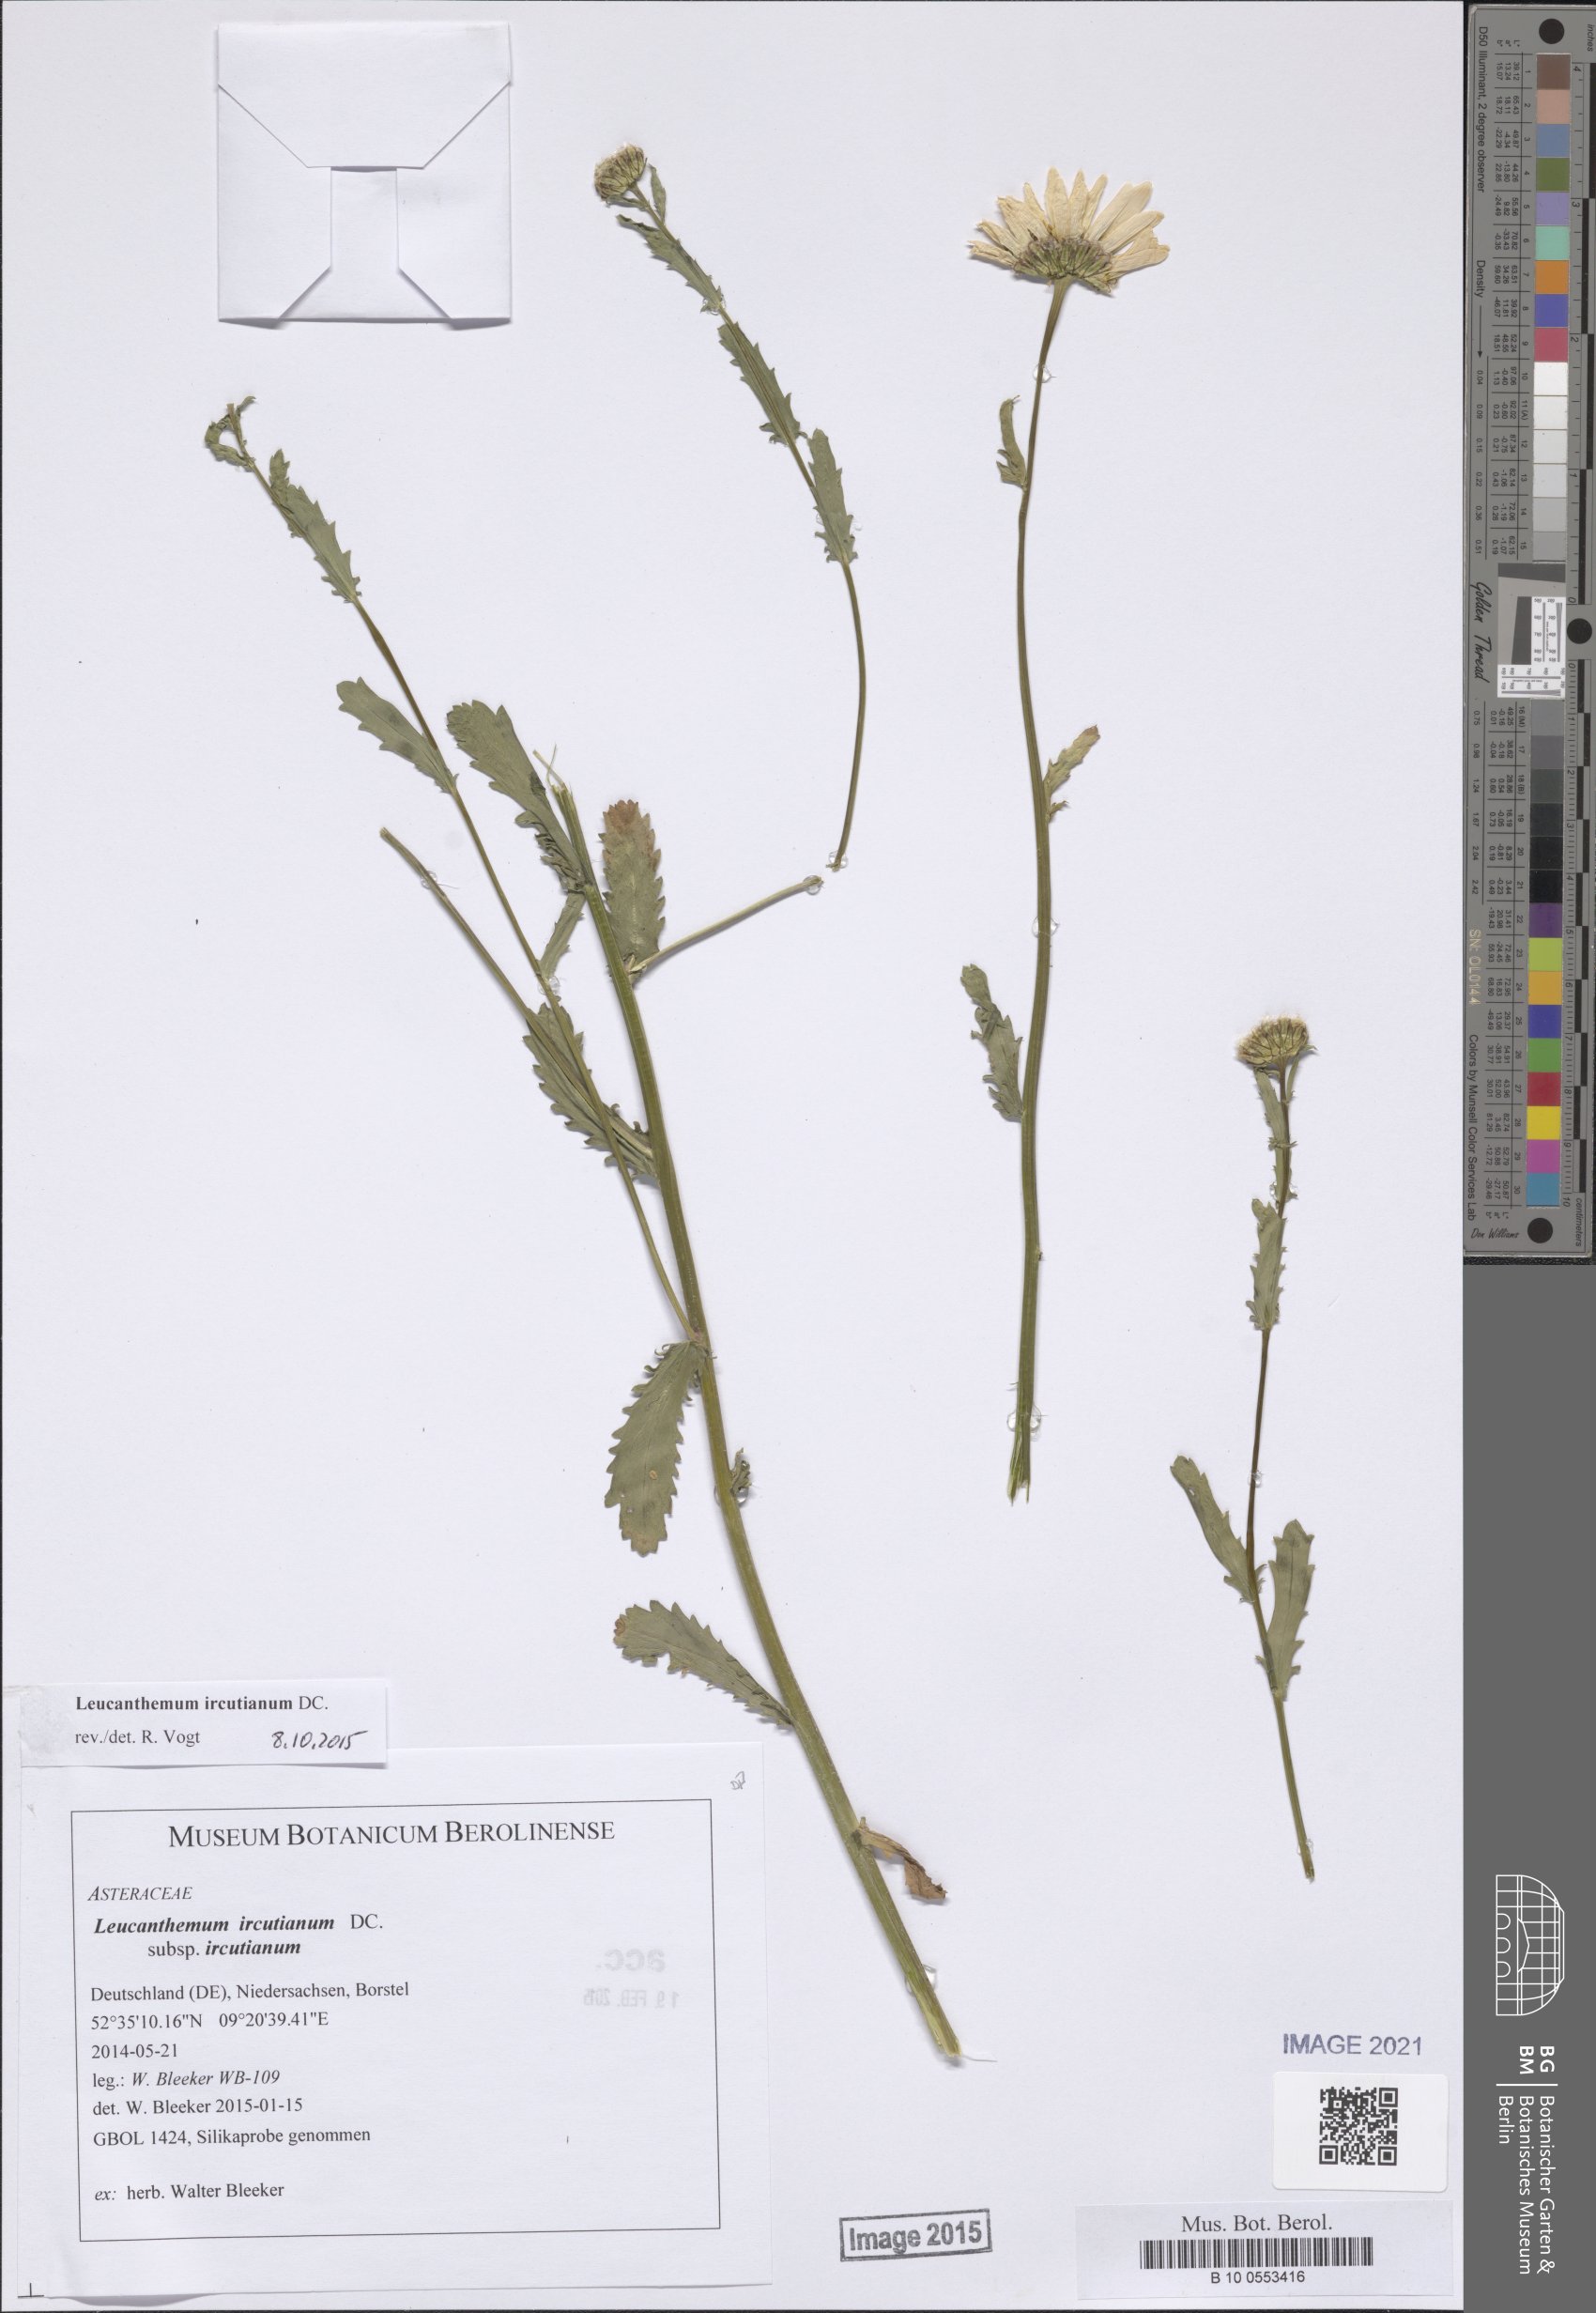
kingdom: Plantae
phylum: Tracheophyta
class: Magnoliopsida
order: Asterales
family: Asteraceae
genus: Leucanthemum
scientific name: Leucanthemum ircutianum
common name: Daisy
